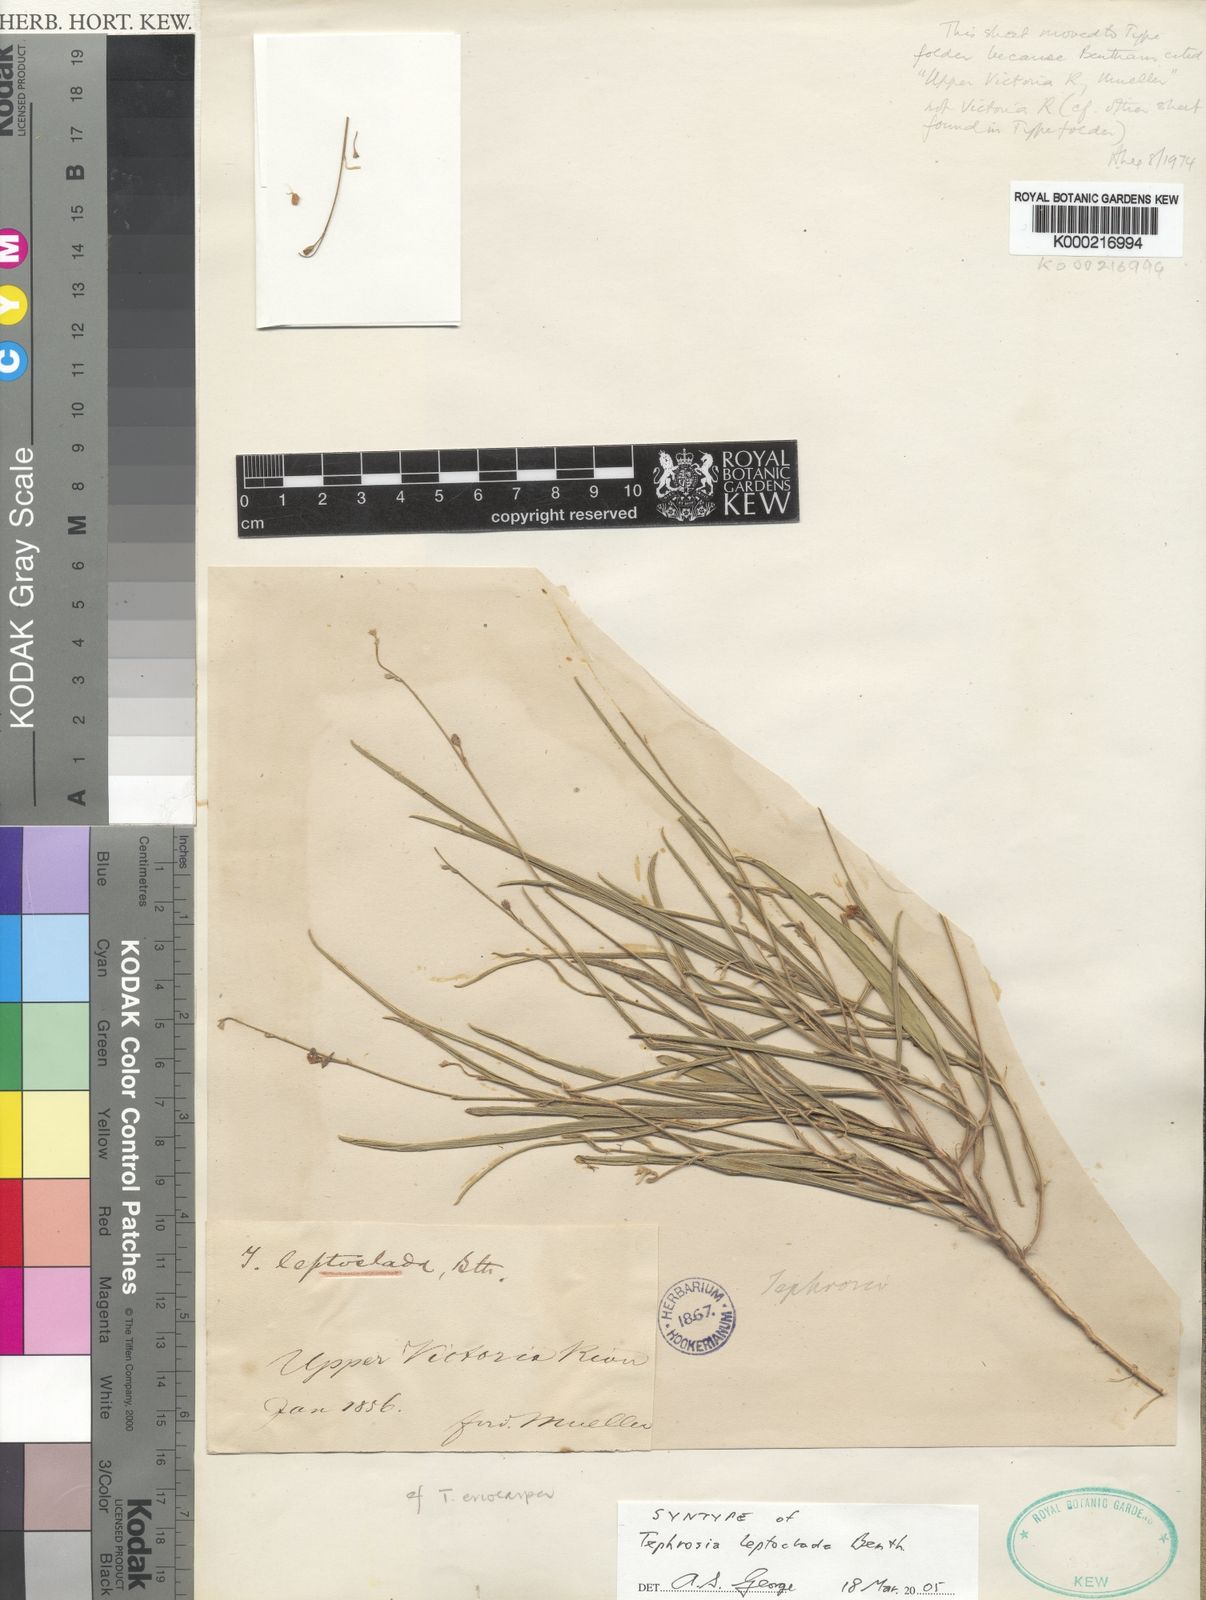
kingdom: Plantae
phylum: Tracheophyta
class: Magnoliopsida
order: Fabales
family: Fabaceae
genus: Tephrosia
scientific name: Tephrosia leptoclada
